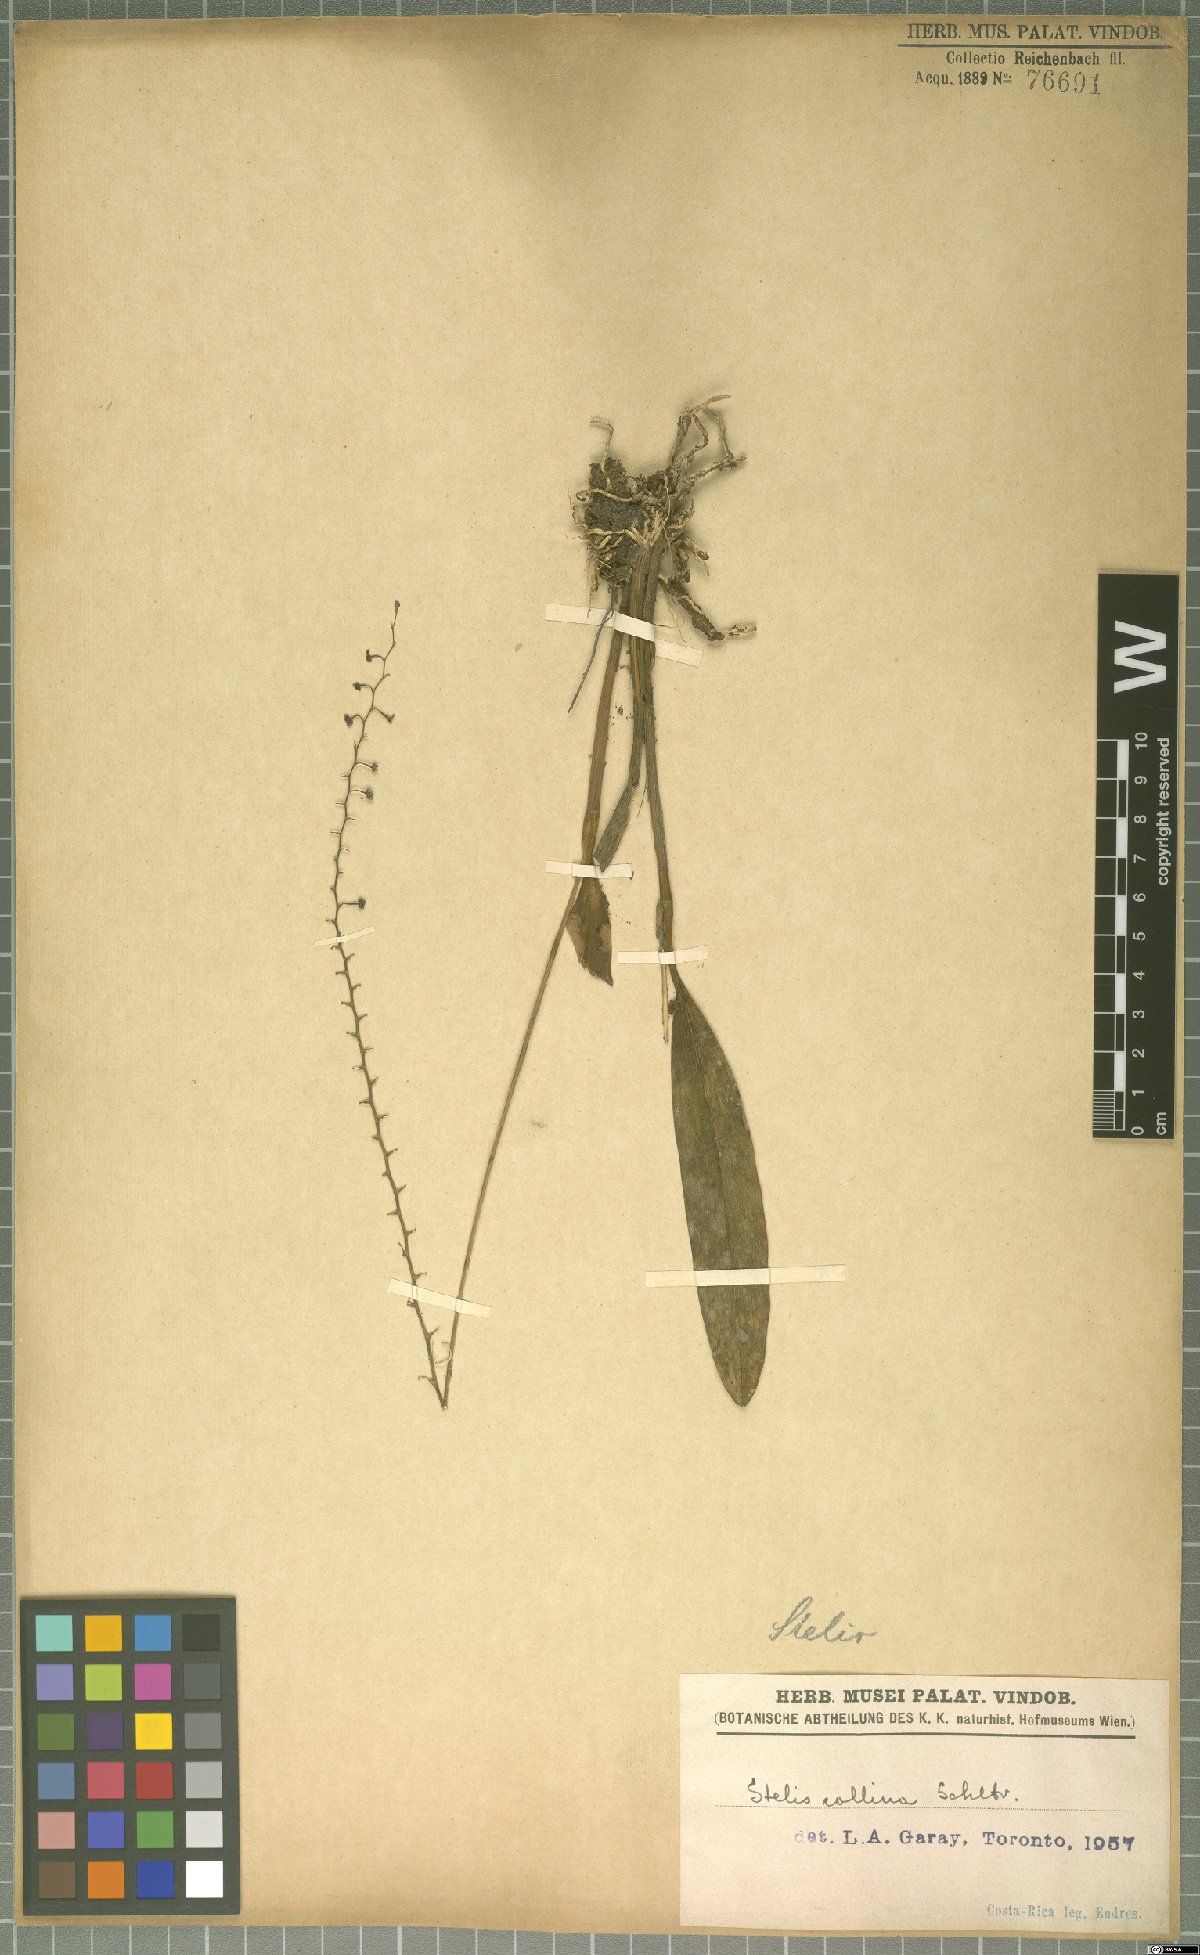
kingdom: Plantae
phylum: Tracheophyta
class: Liliopsida
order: Asparagales
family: Orchidaceae
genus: Stelis
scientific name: Stelis collina
